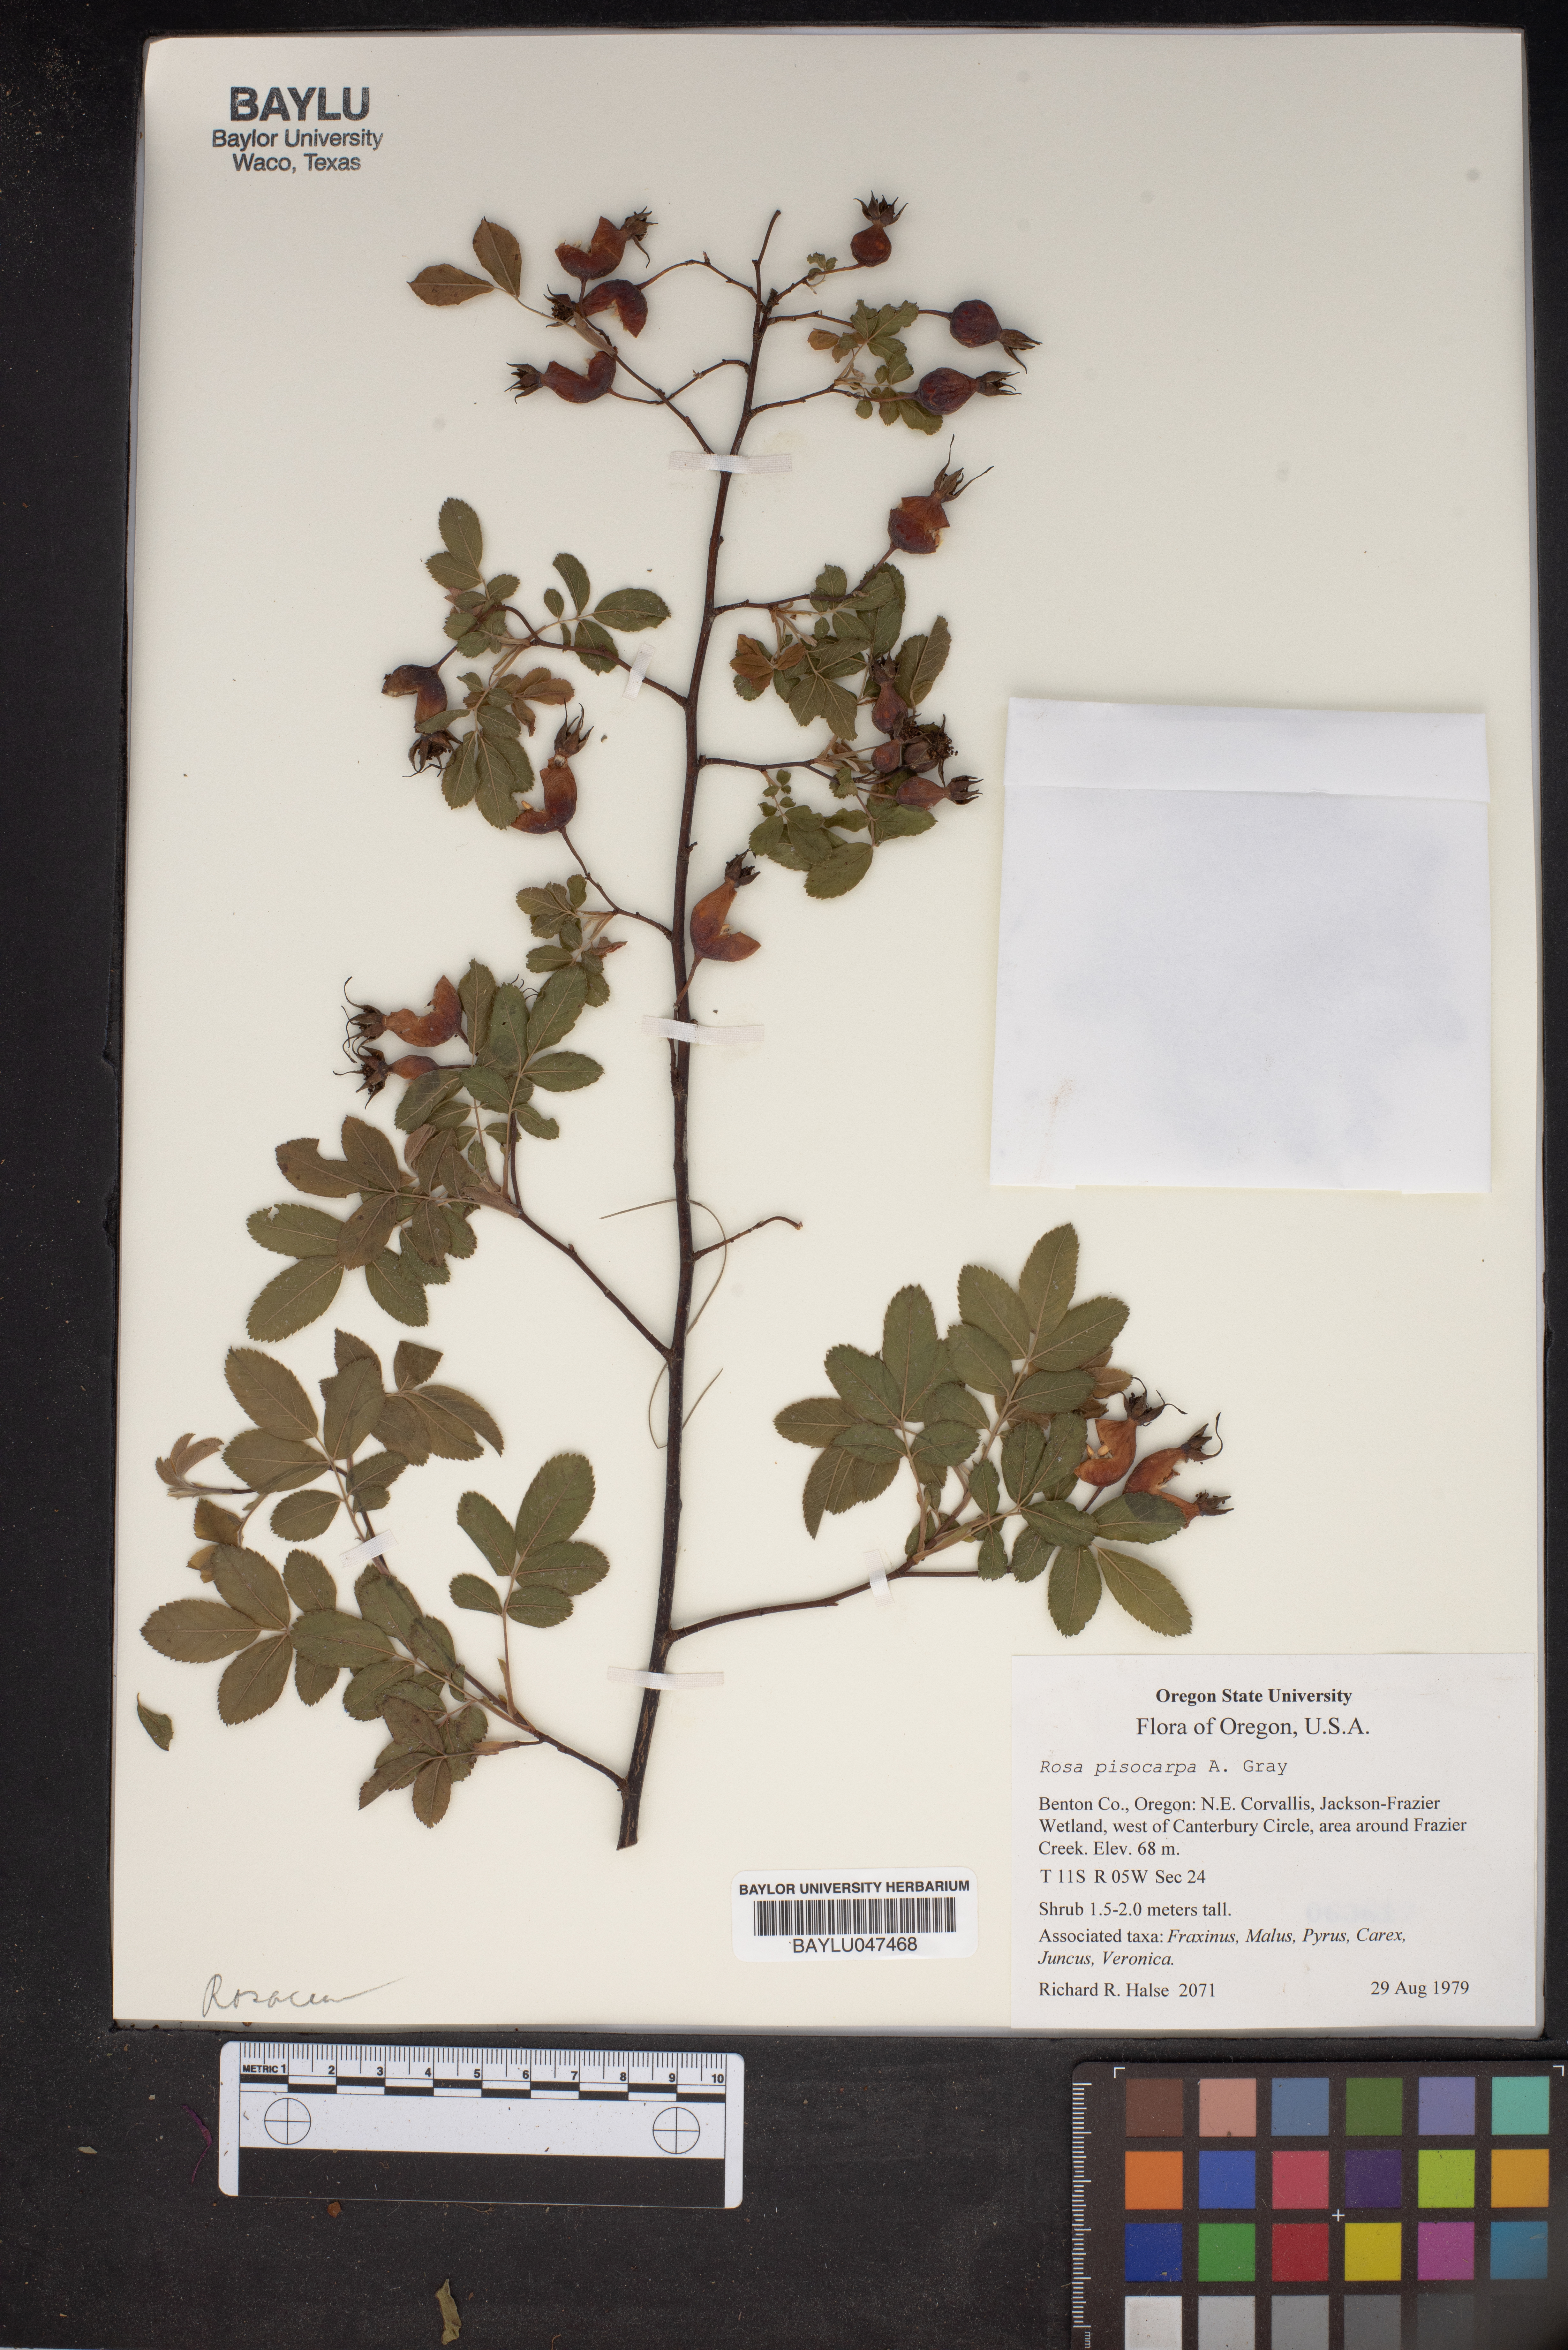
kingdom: Plantae
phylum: Tracheophyta
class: Magnoliopsida
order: Rosales
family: Rosaceae
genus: Rosa
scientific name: Rosa pisocarpa
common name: Cluster rose
